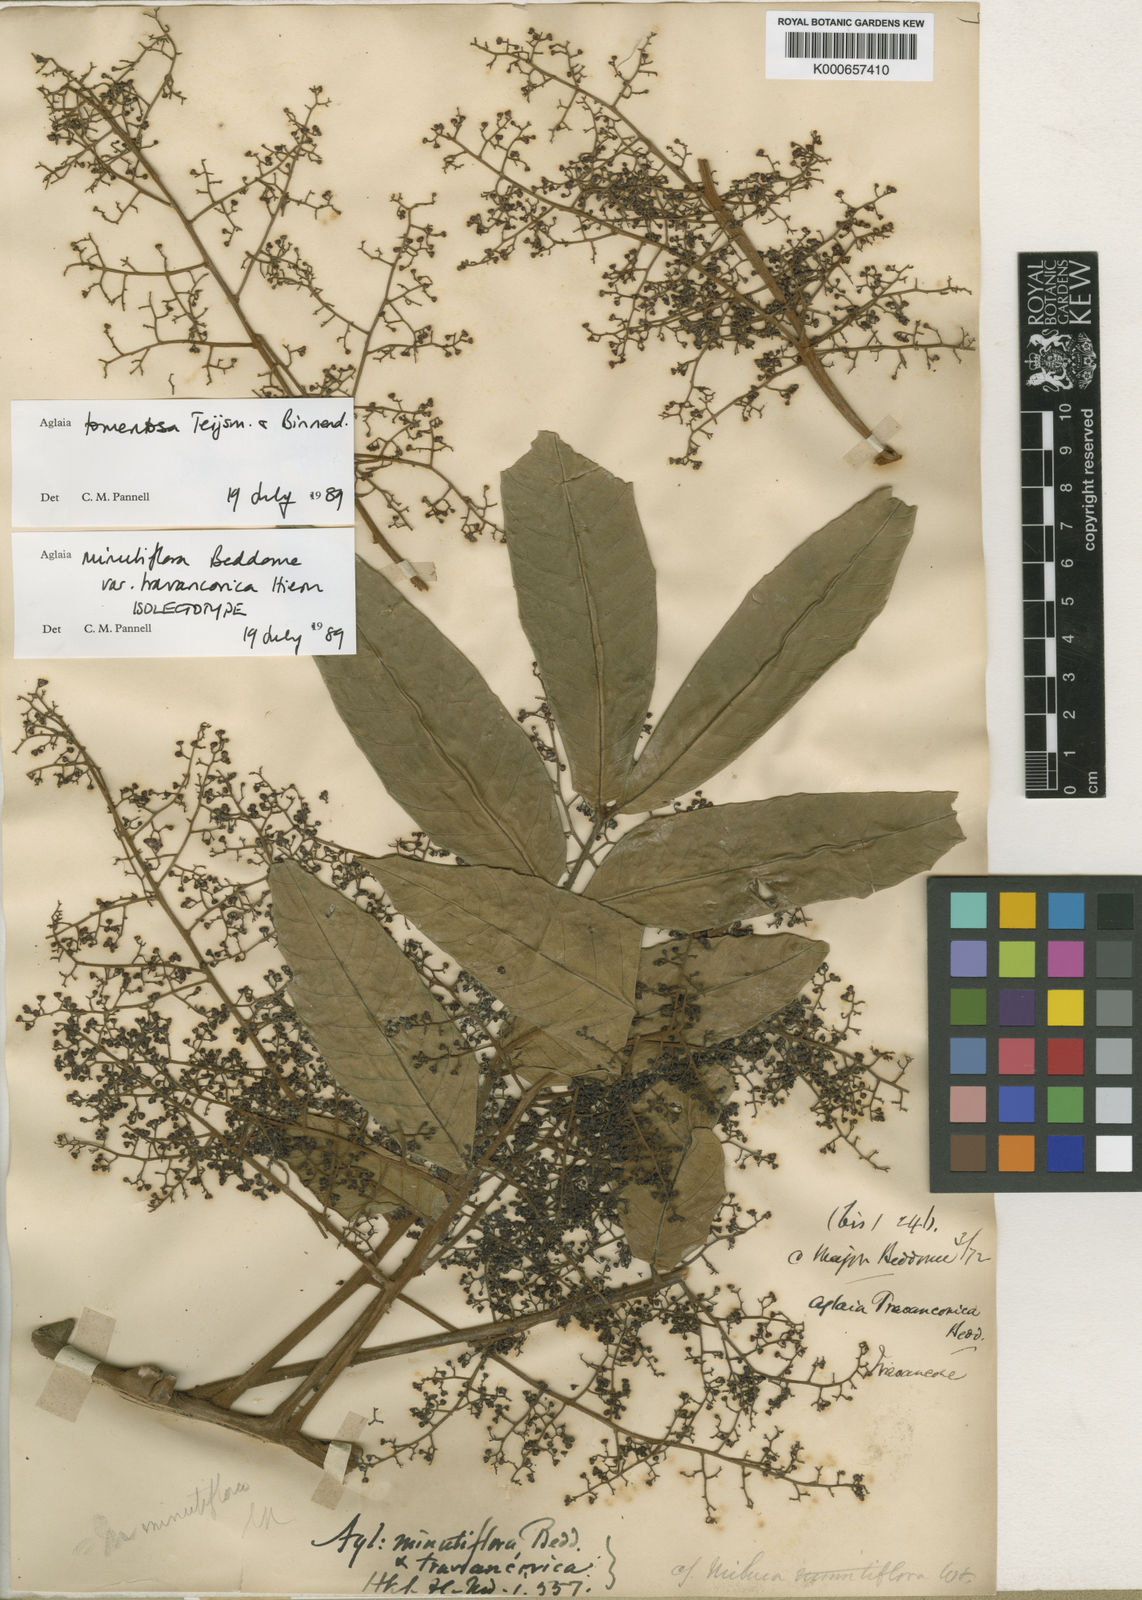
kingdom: Plantae
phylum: Tracheophyta
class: Magnoliopsida
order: Sapindales
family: Meliaceae
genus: Aglaia
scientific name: Aglaia tomentosa
